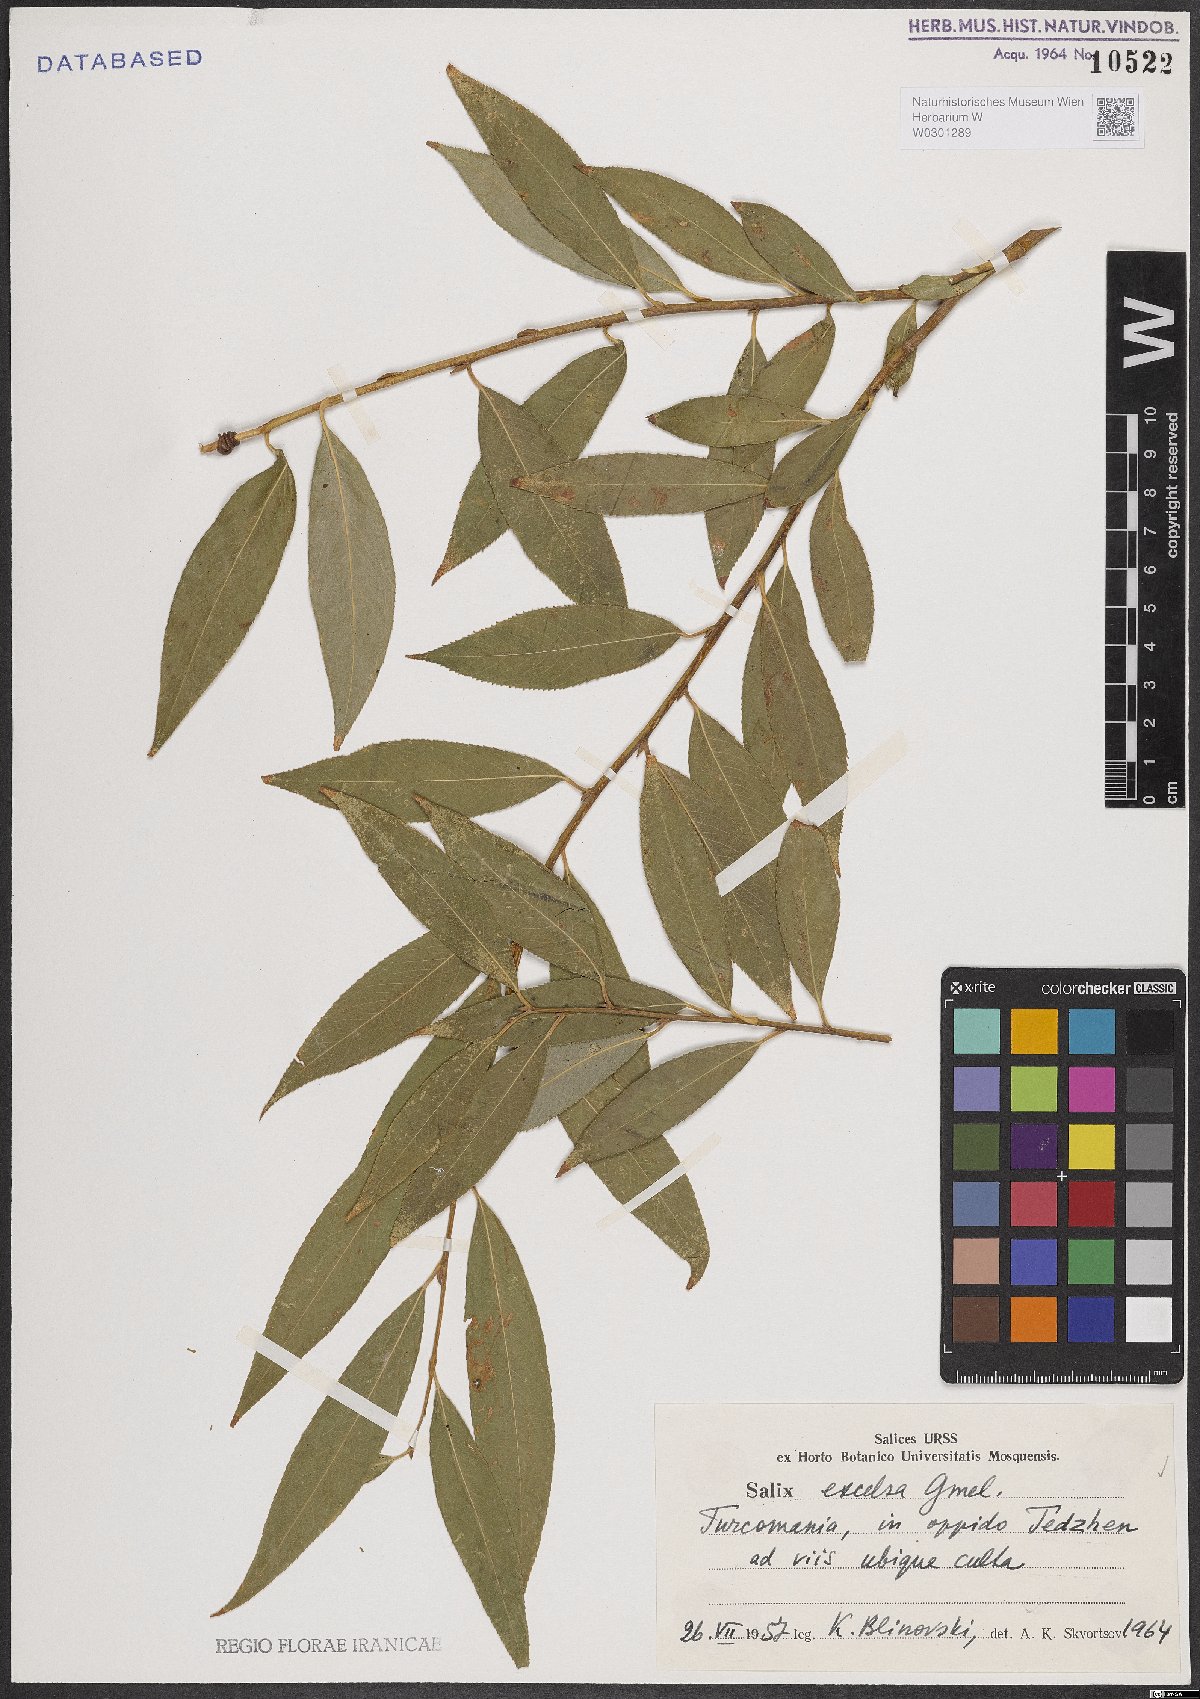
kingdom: Plantae
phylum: Tracheophyta
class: Magnoliopsida
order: Malpighiales
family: Salicaceae
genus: Salix
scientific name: Salix excelsa
